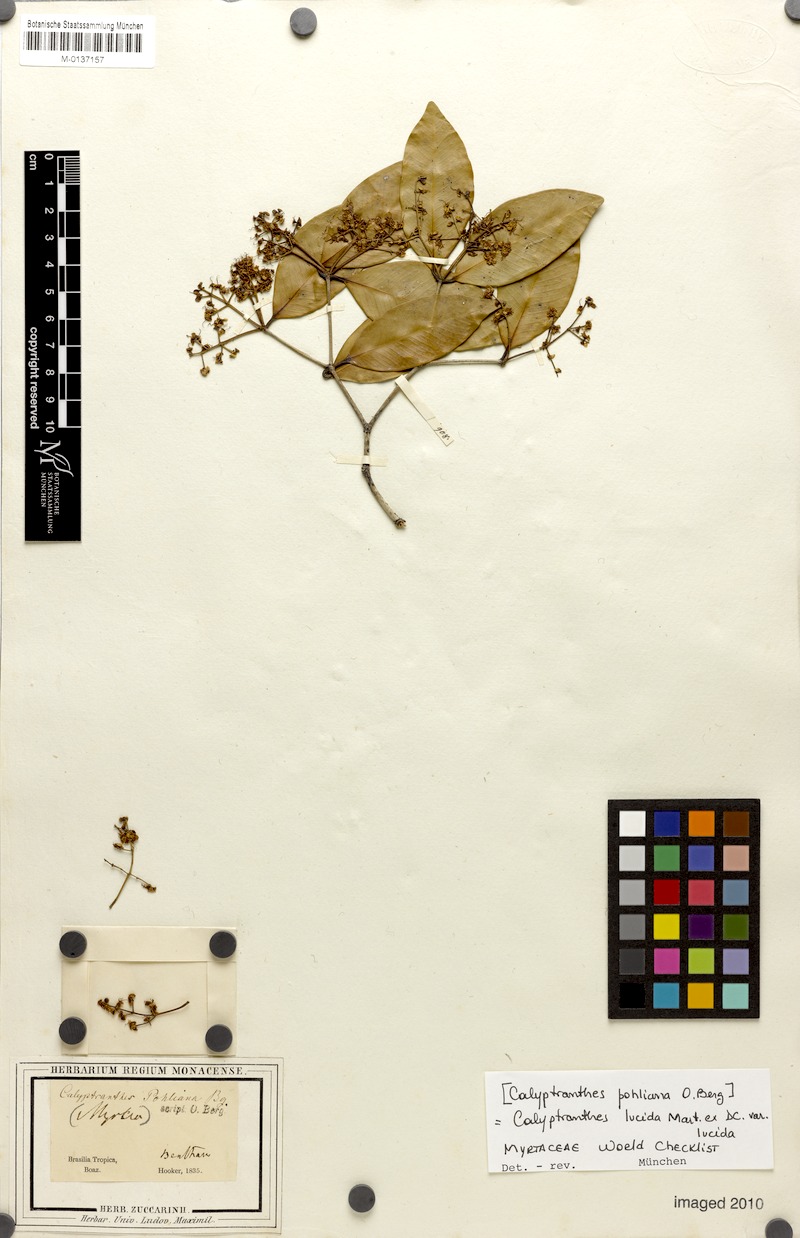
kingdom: Plantae
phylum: Tracheophyta
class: Magnoliopsida
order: Myrtales
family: Myrtaceae
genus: Myrcia
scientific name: Myrcia neolucida
